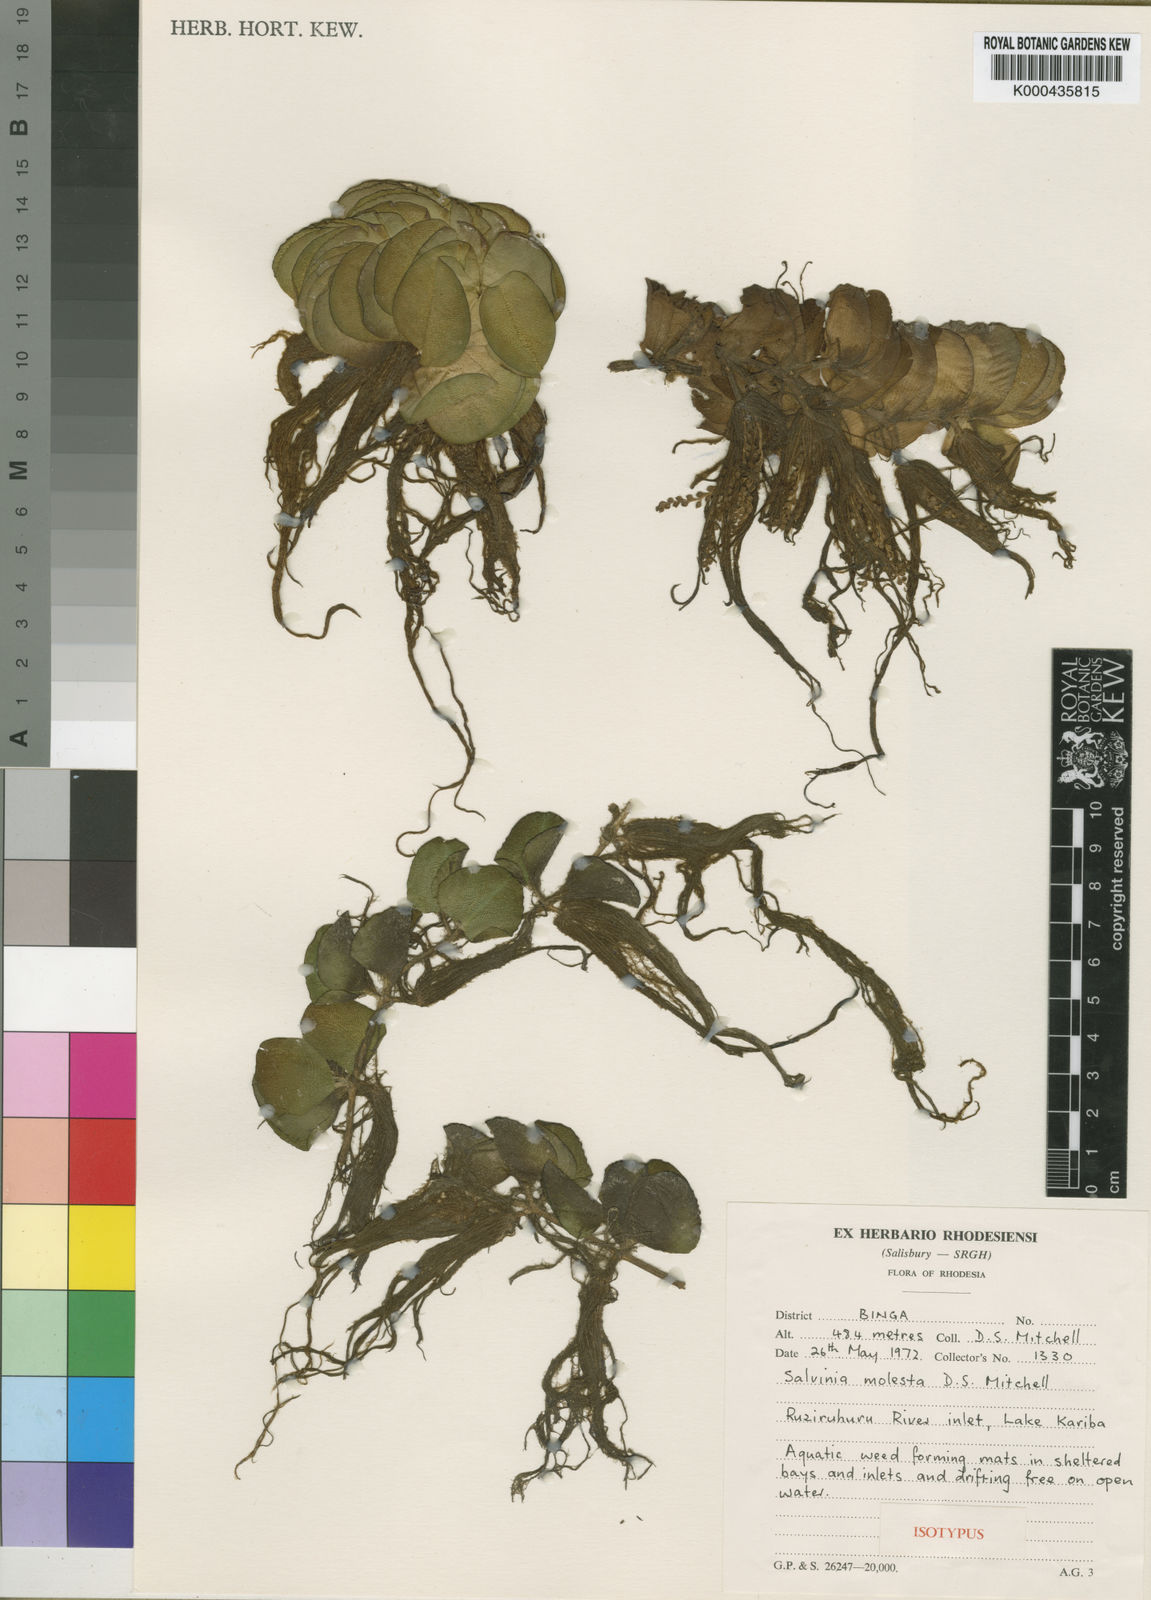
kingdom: Plantae
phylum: Tracheophyta
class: Polypodiopsida
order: Salviniales
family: Salviniaceae
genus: Salvinia
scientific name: Salvinia molesta
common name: Kariba weed
